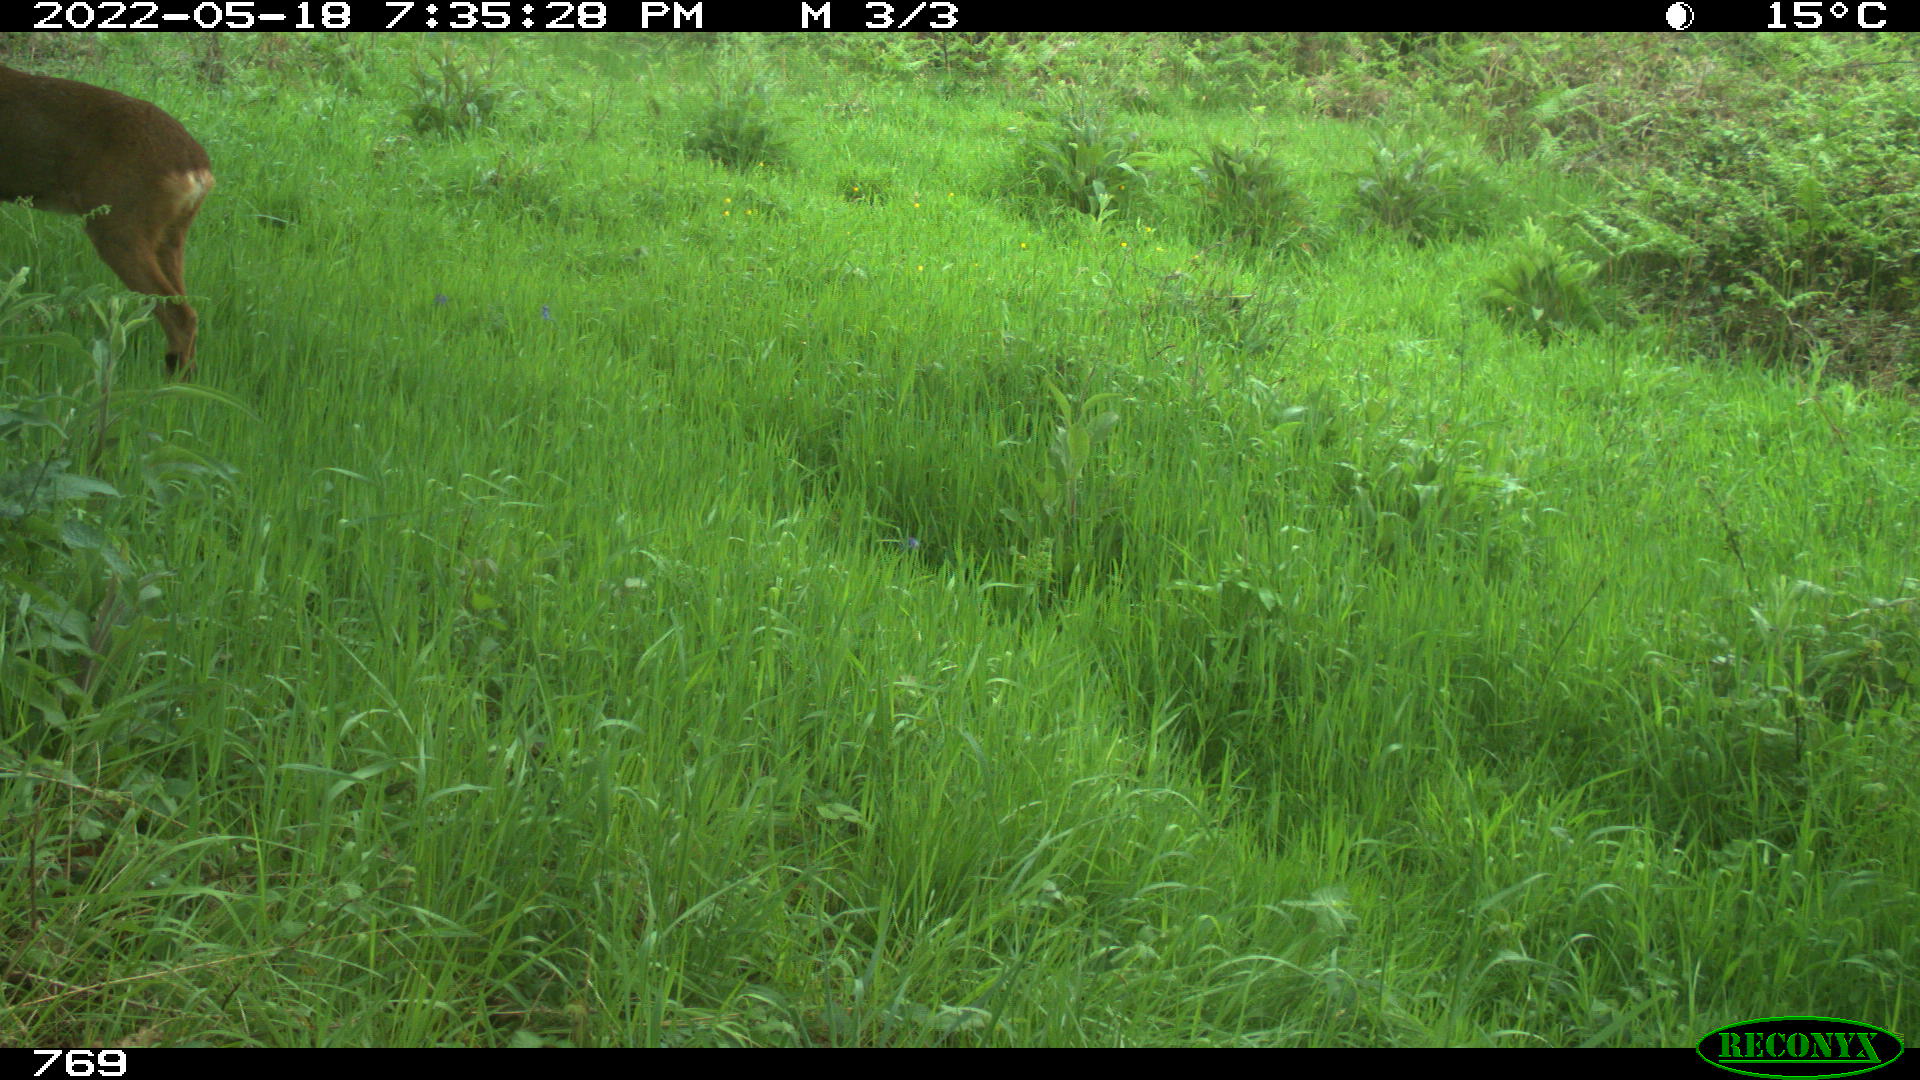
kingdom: Animalia
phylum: Chordata
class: Mammalia
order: Artiodactyla
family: Cervidae
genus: Capreolus
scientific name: Capreolus capreolus
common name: Western roe deer
